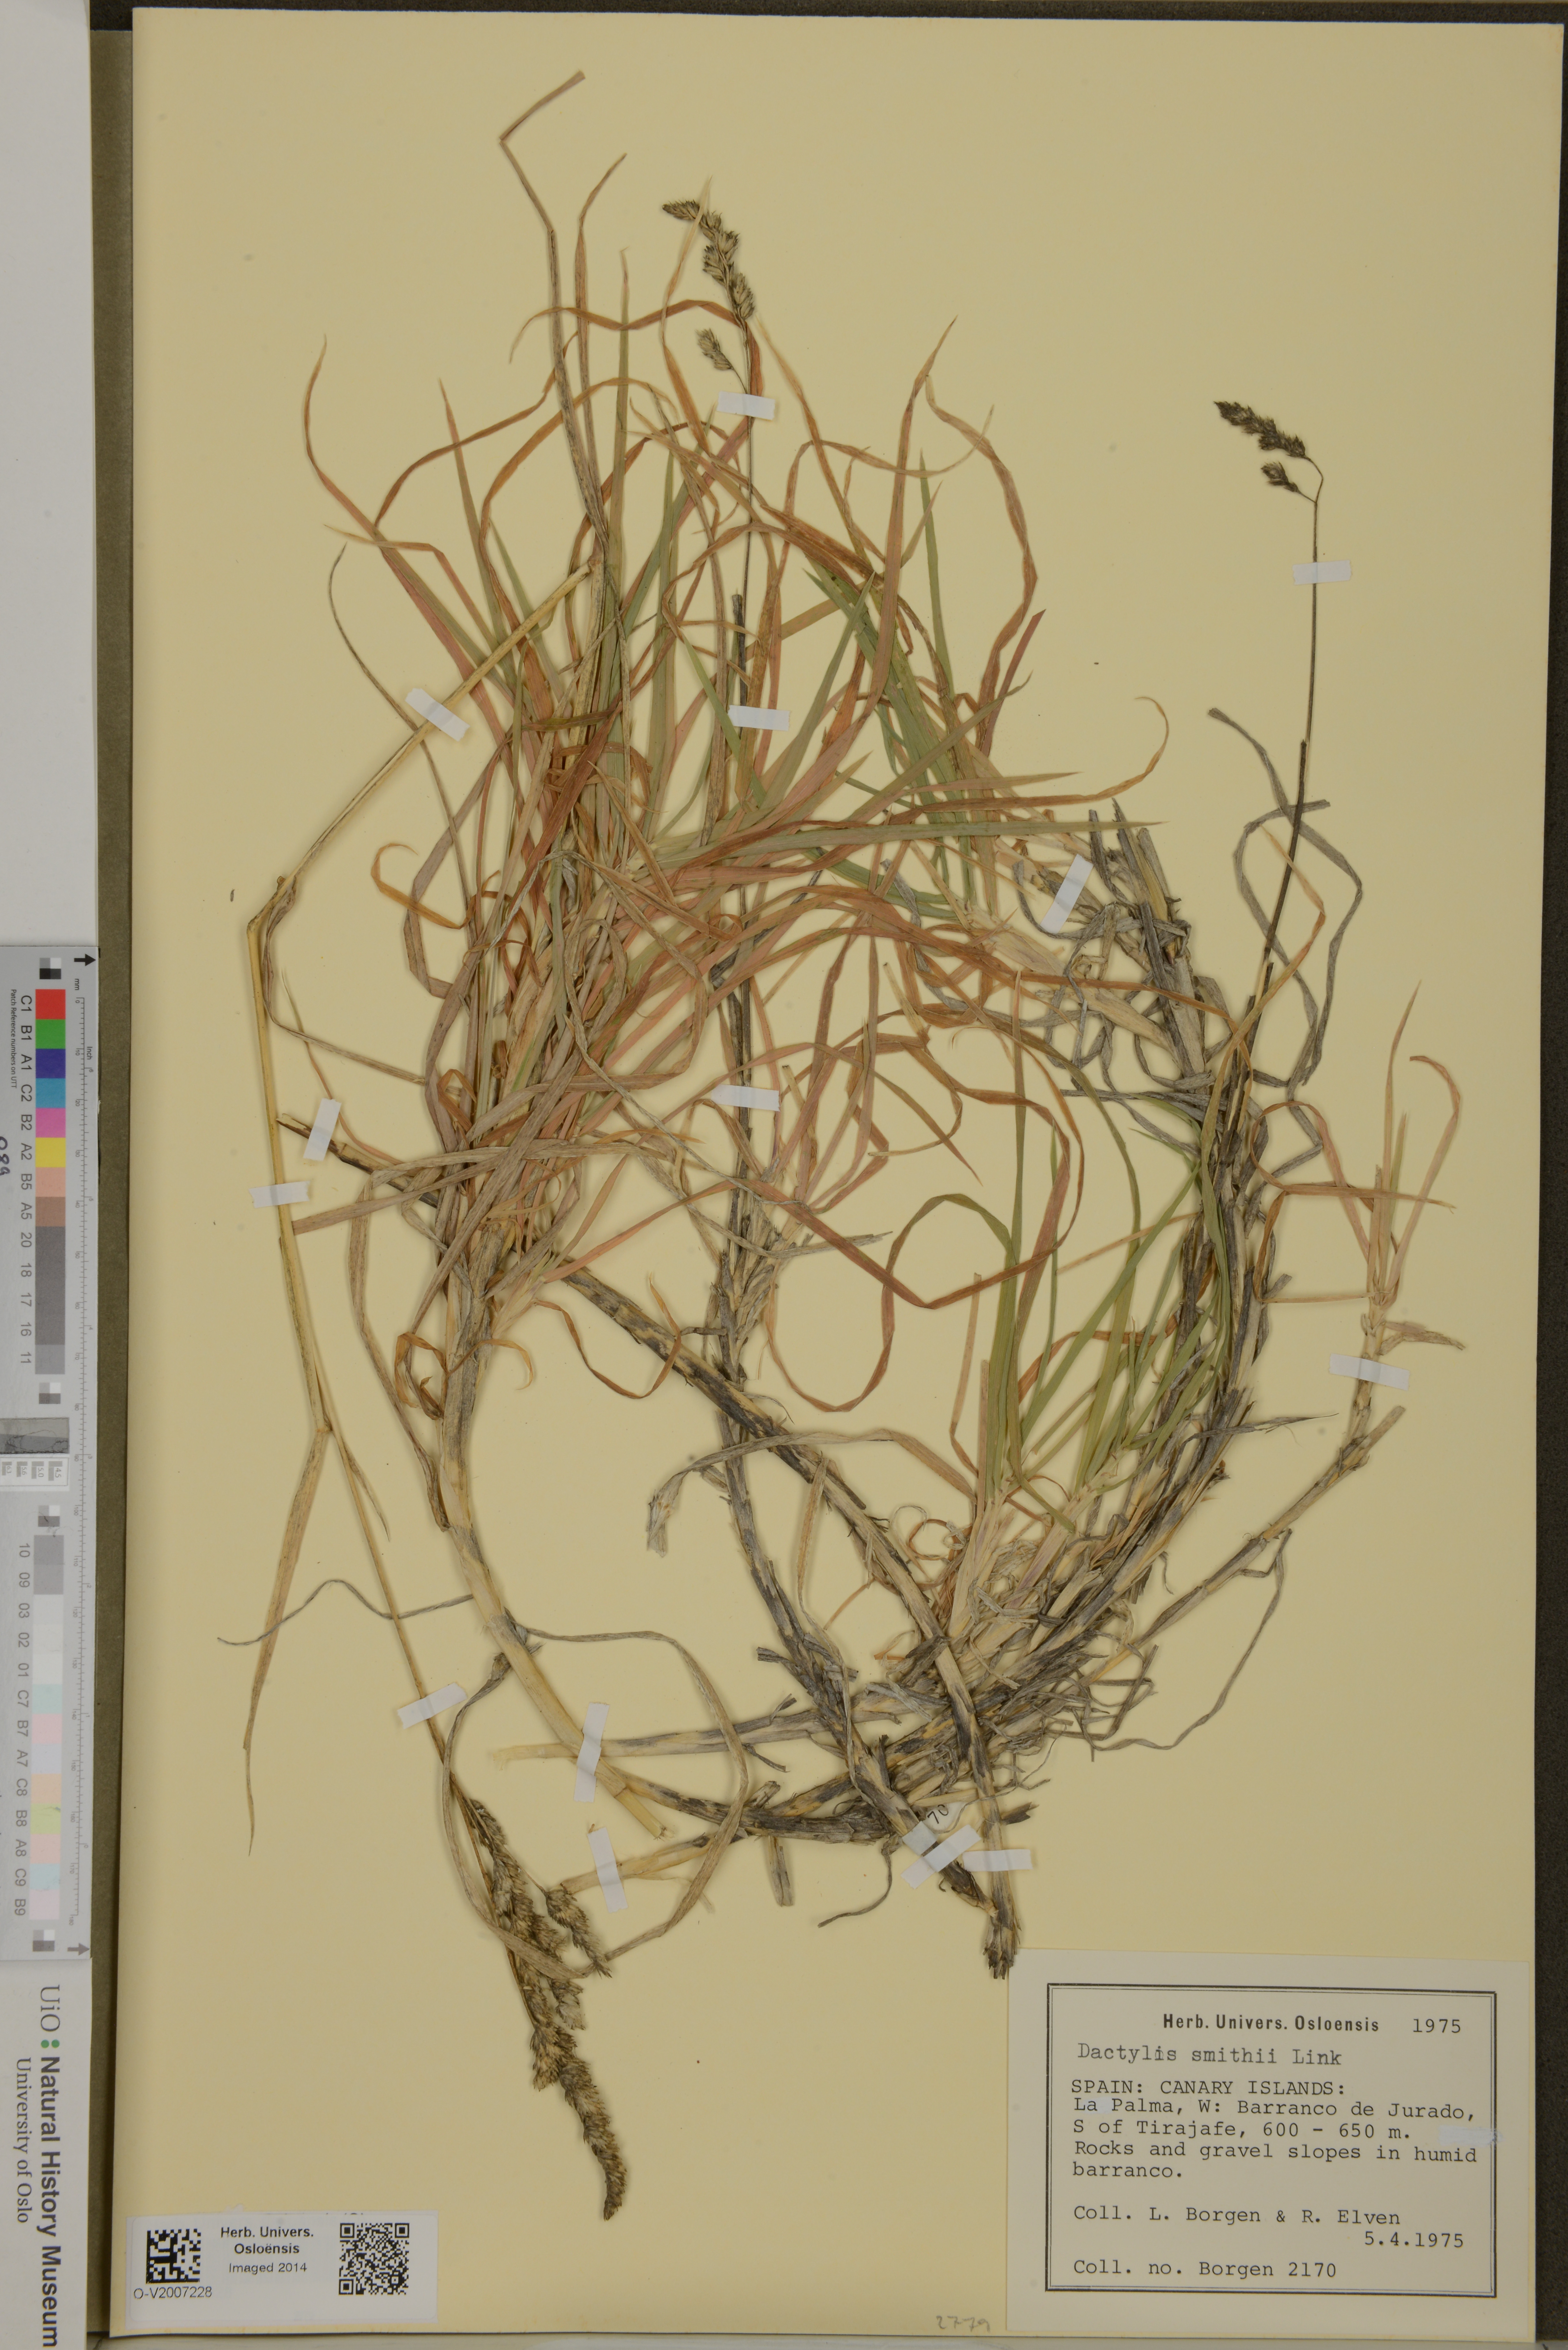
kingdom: Plantae
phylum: Tracheophyta
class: Liliopsida
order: Poales
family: Poaceae
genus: Dactylis
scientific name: Dactylis smithii
